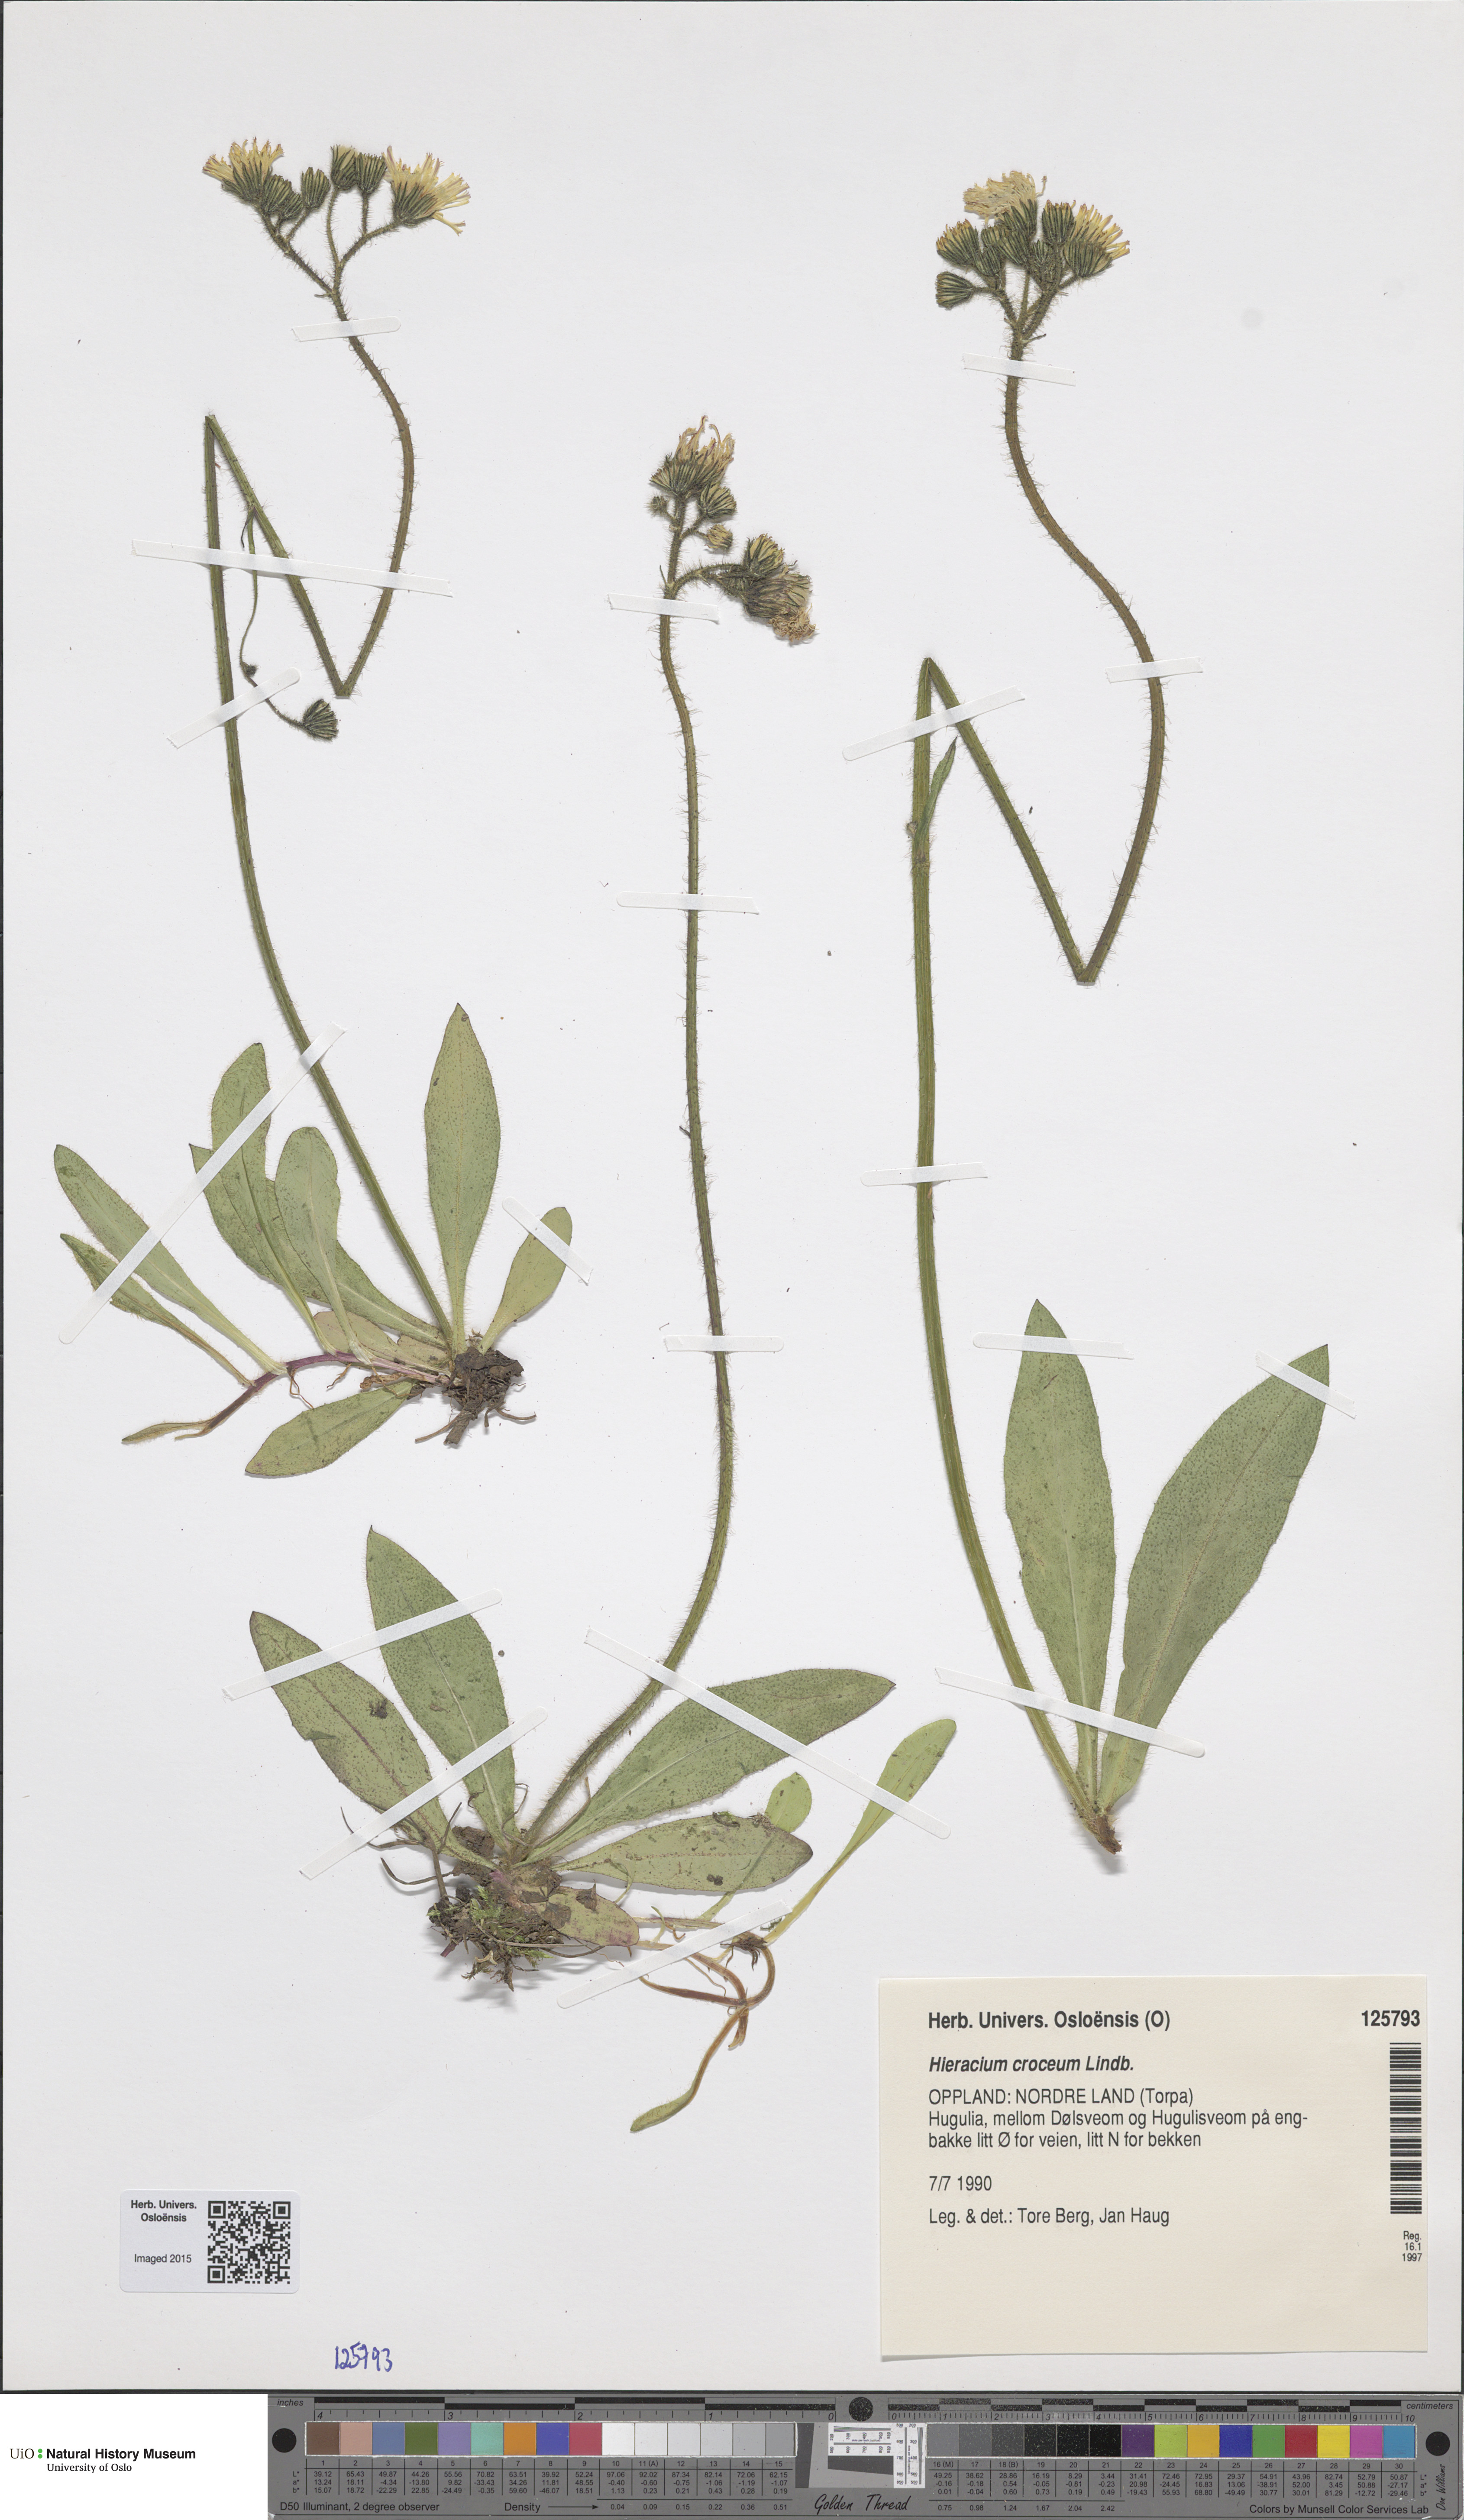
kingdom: Plantae
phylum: Tracheophyta
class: Magnoliopsida
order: Asterales
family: Asteraceae
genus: Pilosella
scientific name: Pilosella fuscoatra
